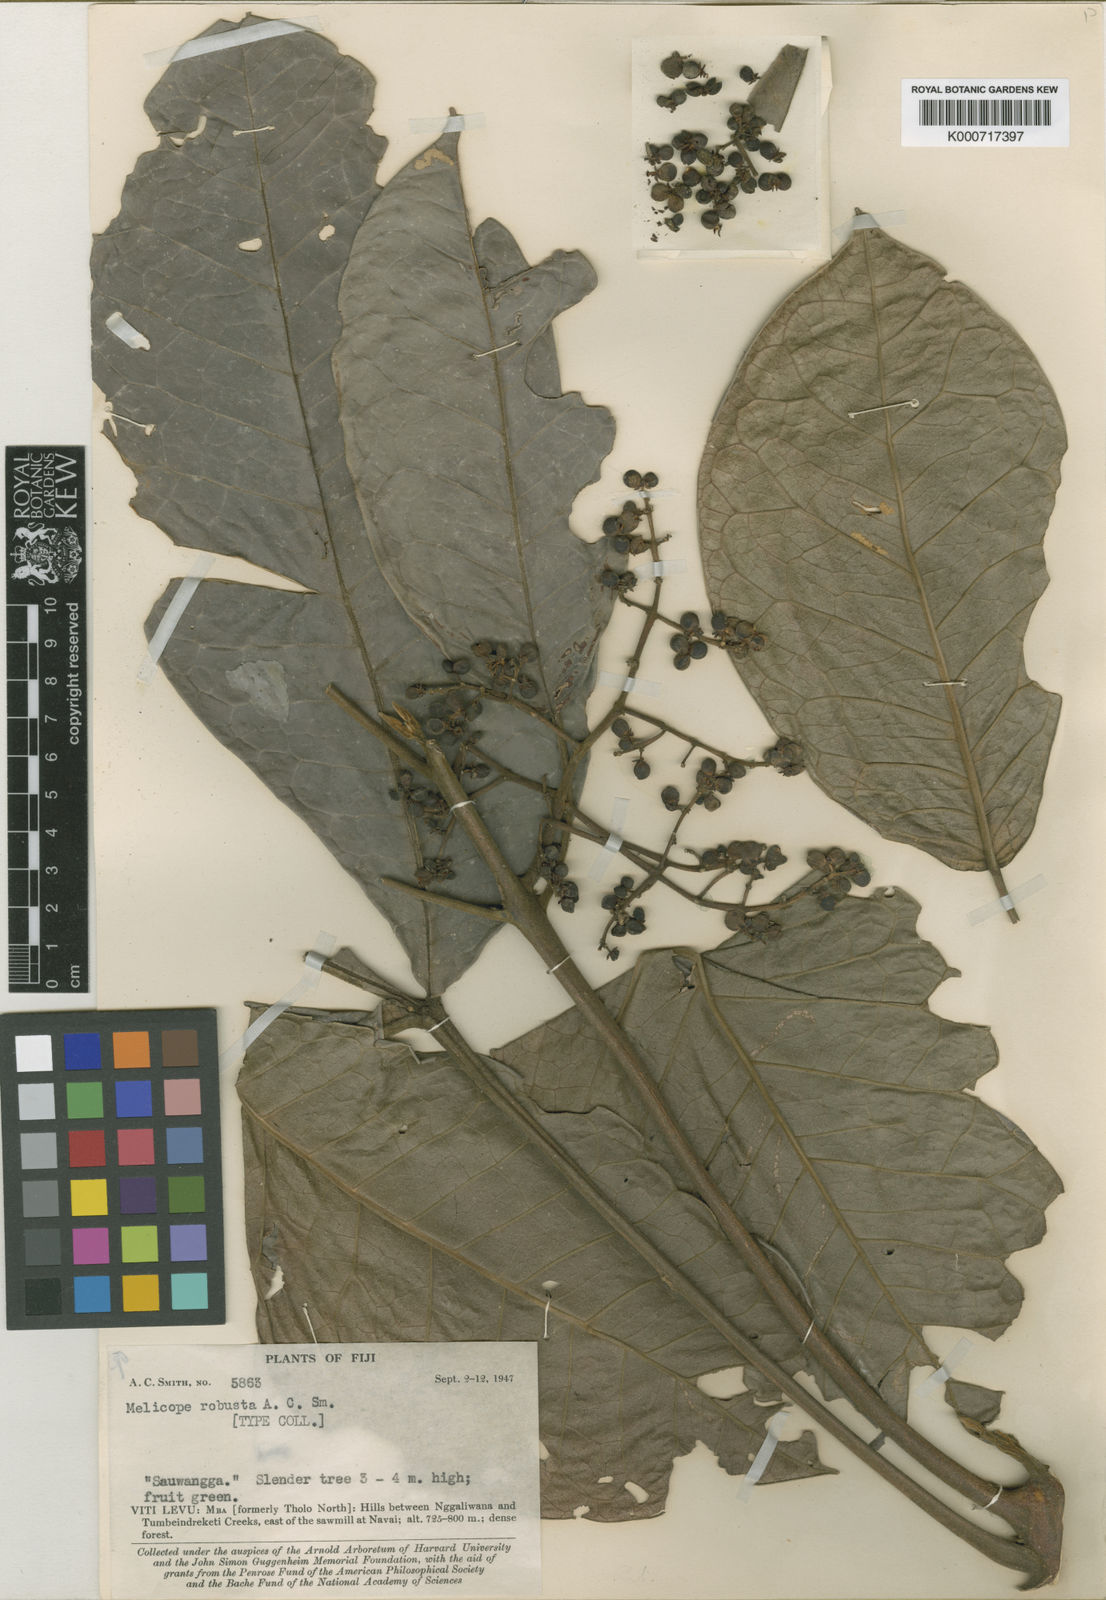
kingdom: Plantae
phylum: Tracheophyta
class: Magnoliopsida
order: Sapindales
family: Rutaceae
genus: Melicope
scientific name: Melicope robusta
